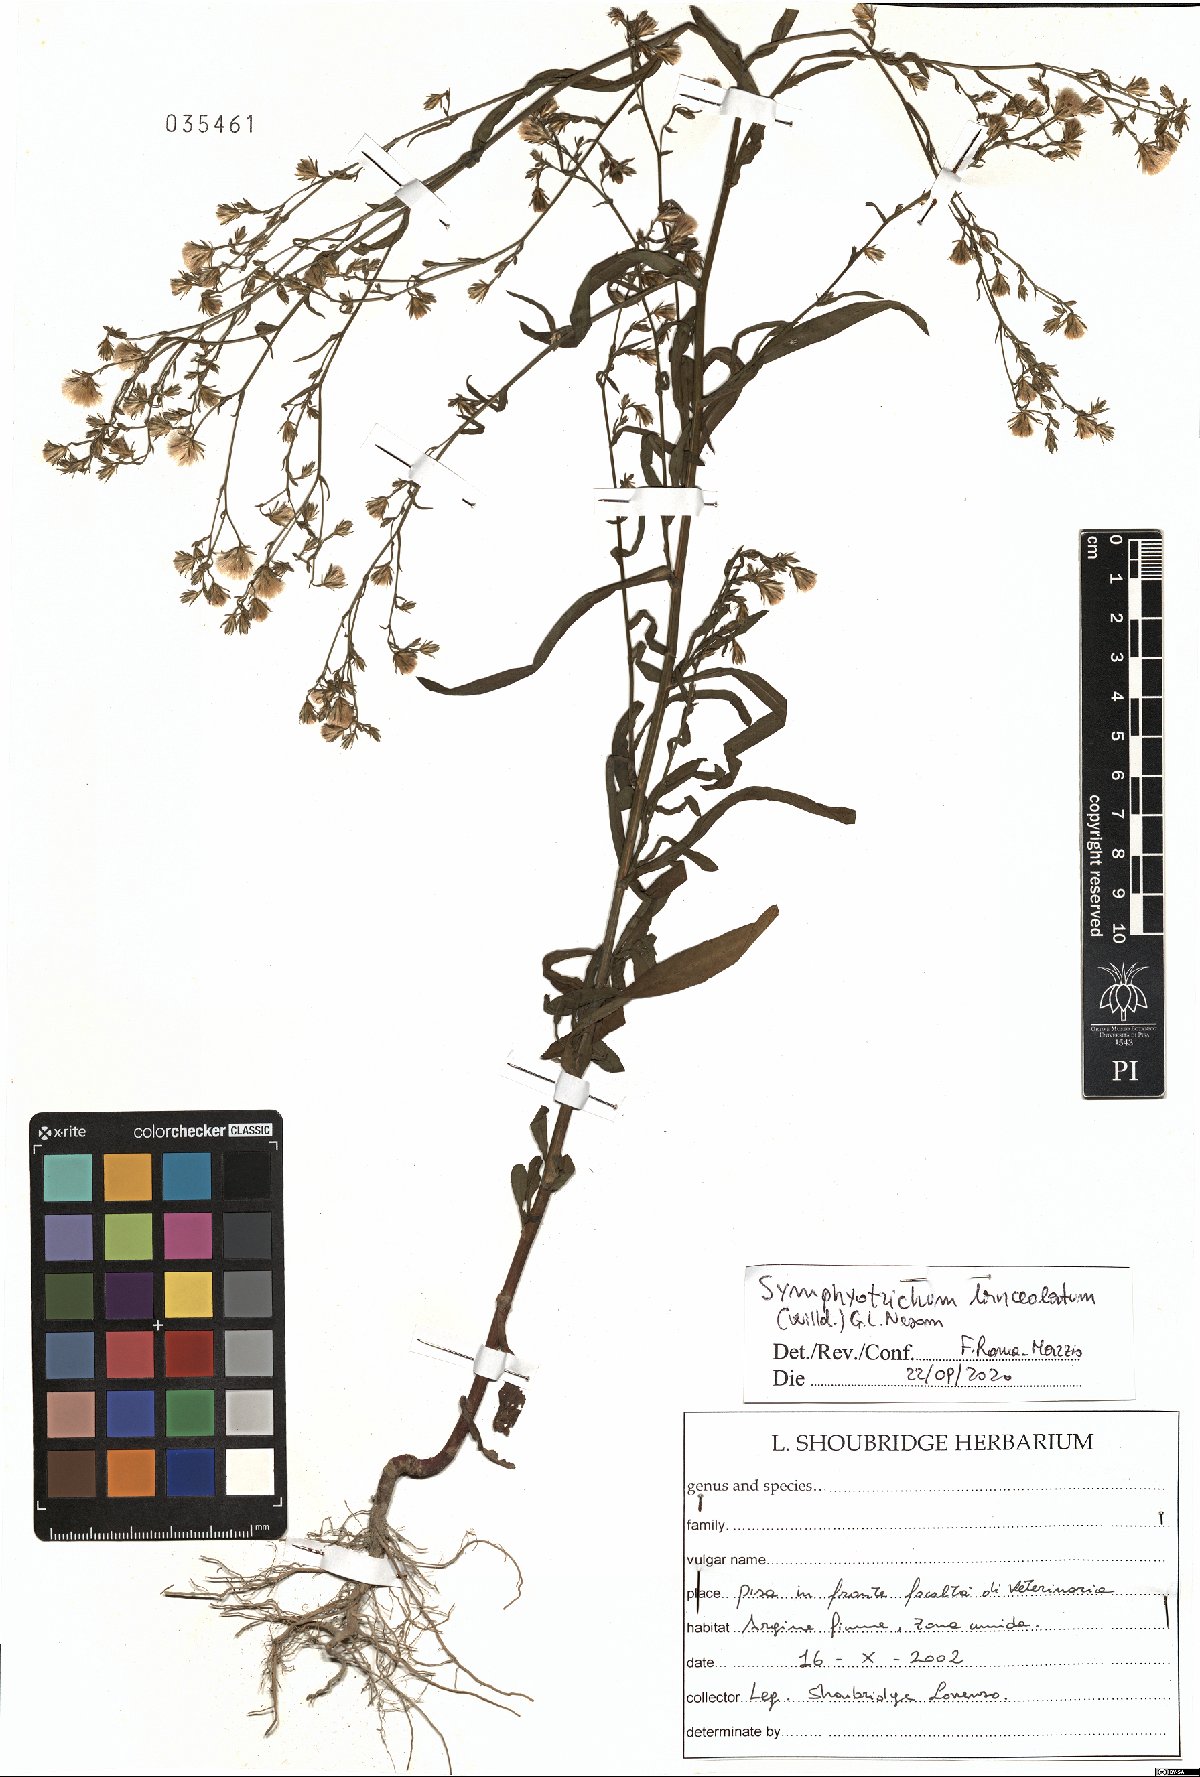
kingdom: Plantae
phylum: Tracheophyta
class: Magnoliopsida
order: Asterales
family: Asteraceae
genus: Symphyotrichum
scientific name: Symphyotrichum lanceolatum
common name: Panicled aster
